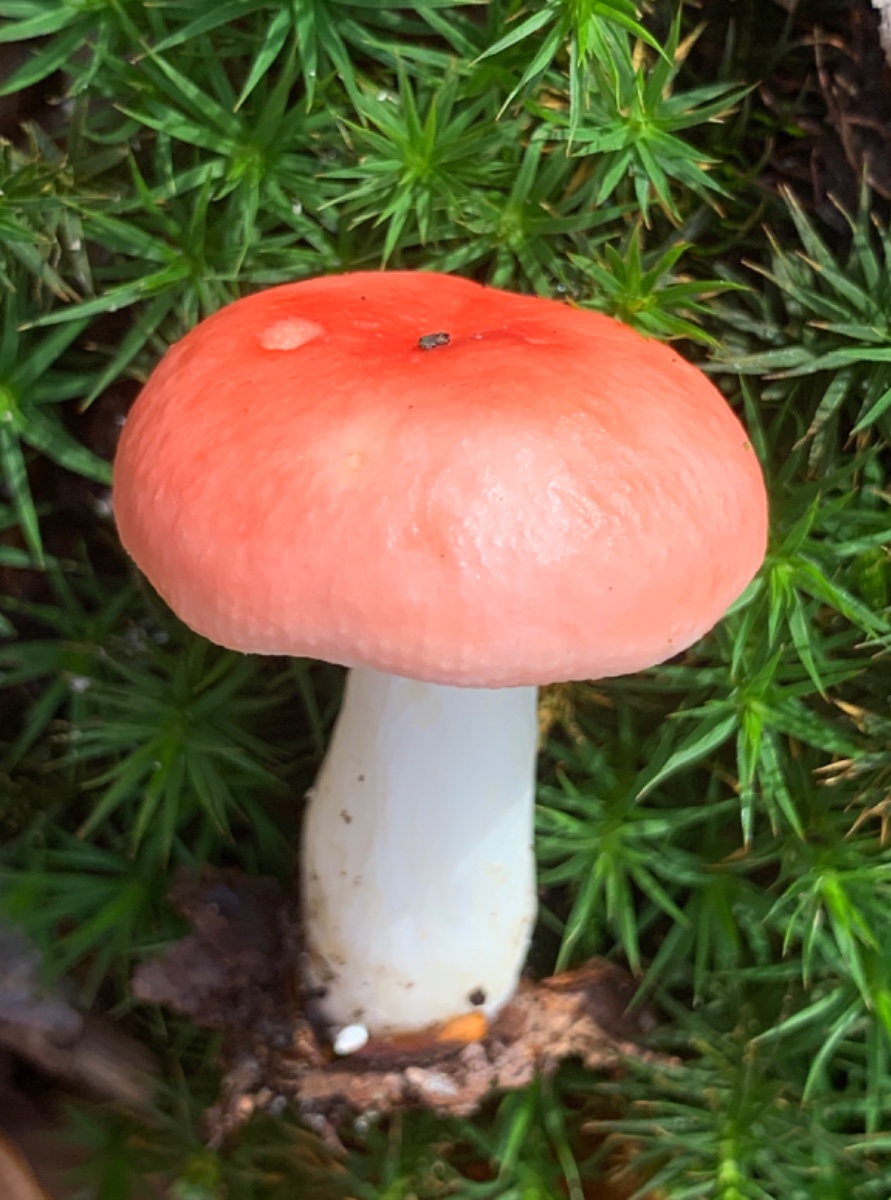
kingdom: Fungi
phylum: Basidiomycota
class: Agaricomycetes
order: Russulales
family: Russulaceae
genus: Russula
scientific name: Russula nobilis
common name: lille gift-skørhat
